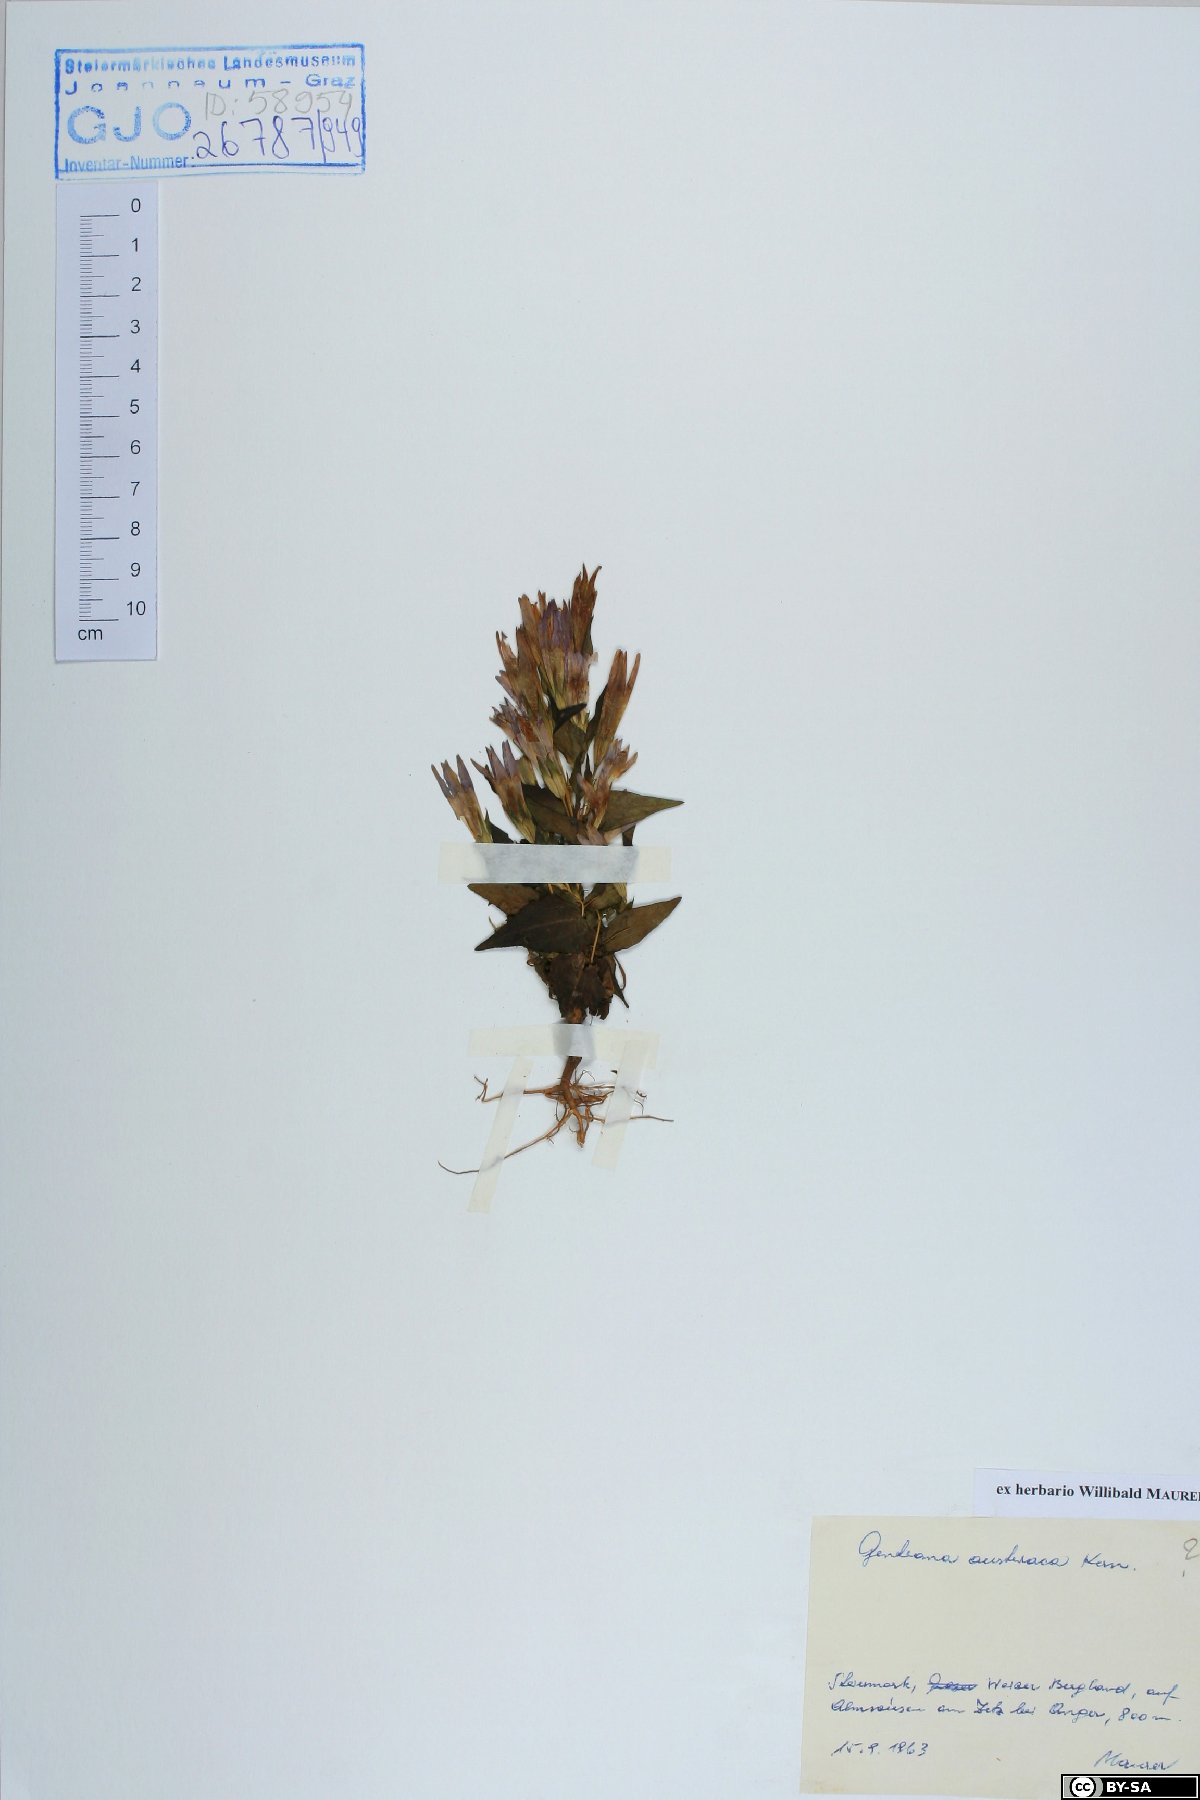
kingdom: Plantae
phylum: Tracheophyta
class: Magnoliopsida
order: Gentianales
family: Gentianaceae
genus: Gentianella
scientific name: Gentianella austriaca
